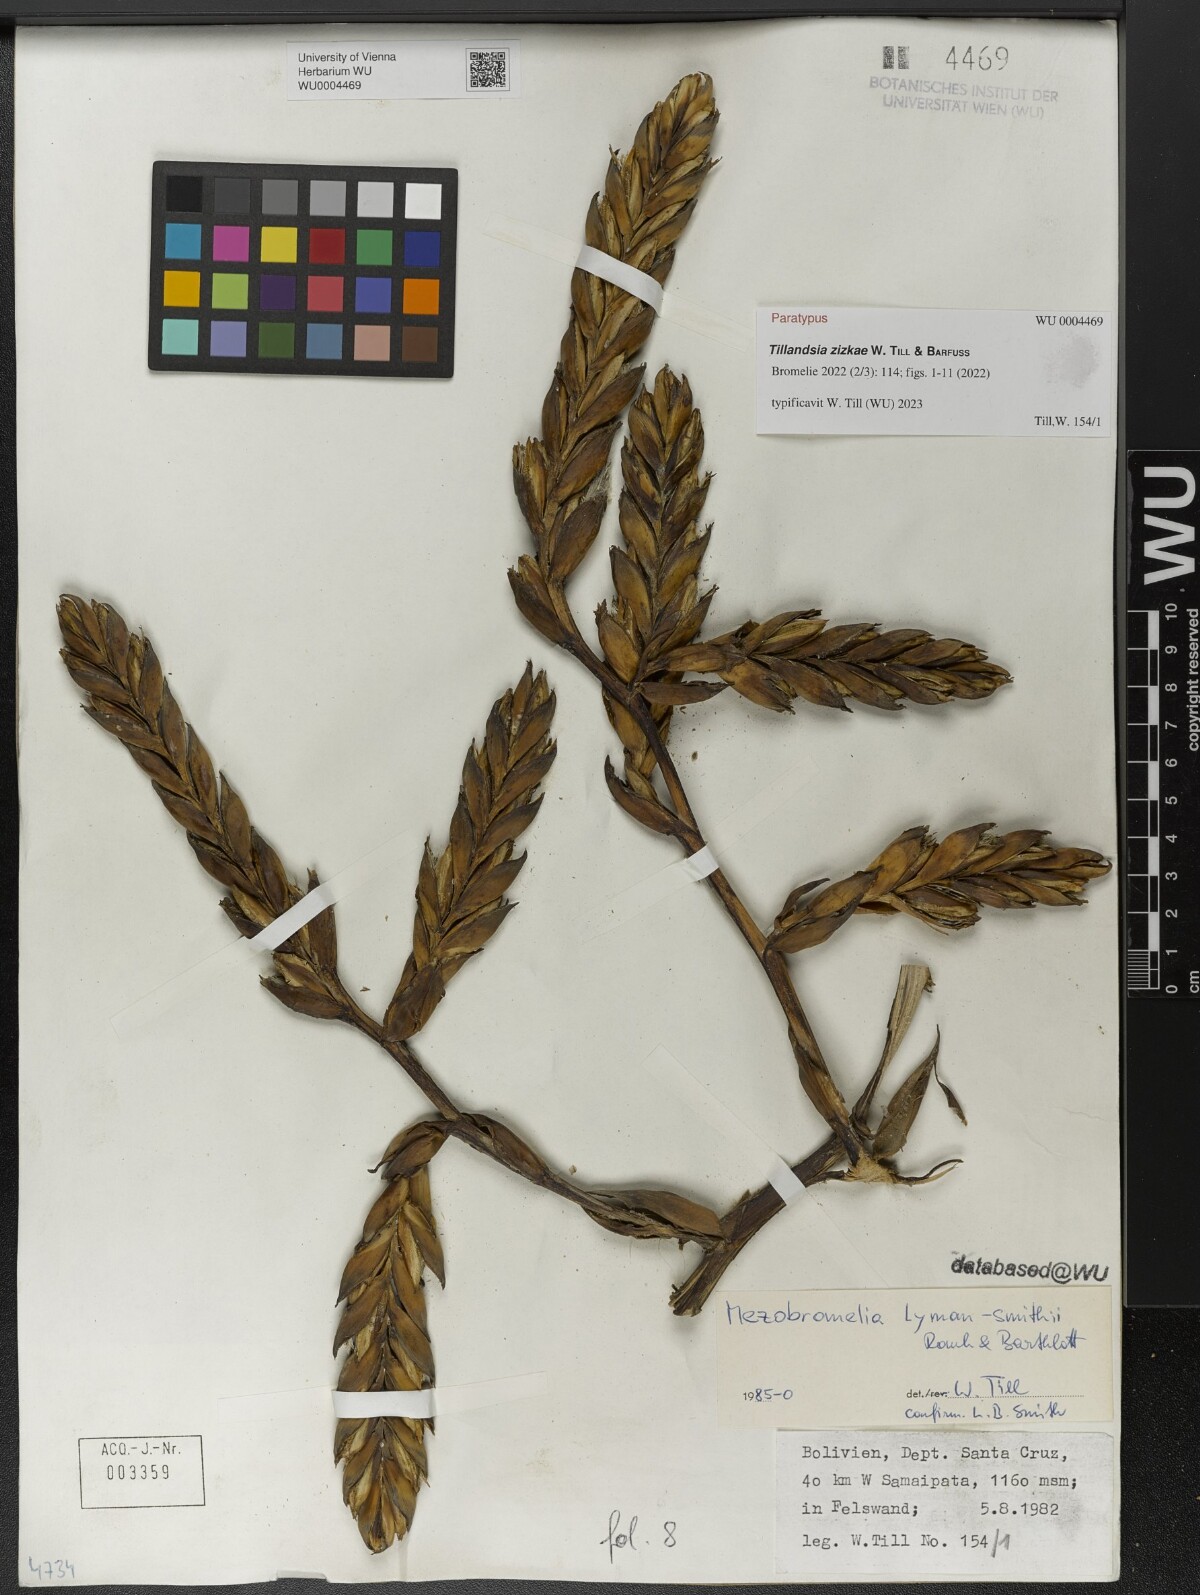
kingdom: Plantae
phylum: Tracheophyta
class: Liliopsida
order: Poales
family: Bromeliaceae
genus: Tillandsia
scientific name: Tillandsia
